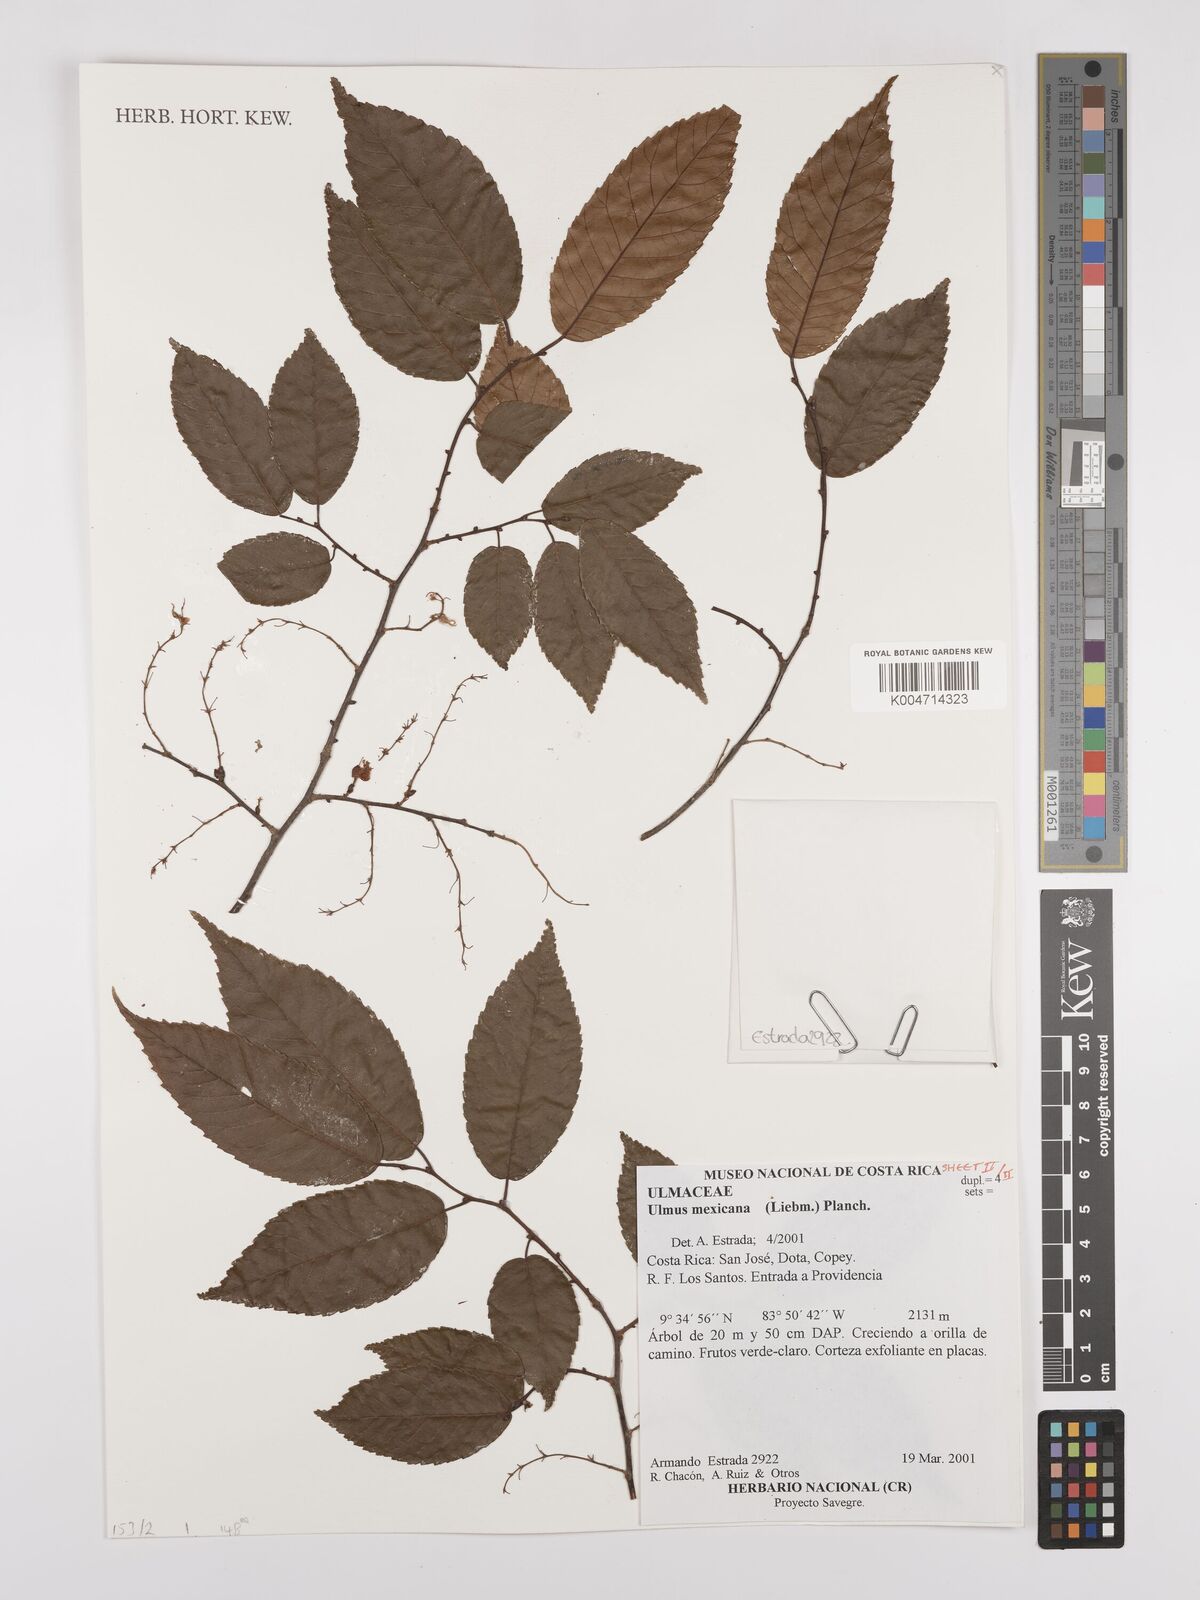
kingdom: Plantae
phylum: Tracheophyta
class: Magnoliopsida
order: Rosales
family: Ulmaceae
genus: Ulmus
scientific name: Ulmus mexicana
